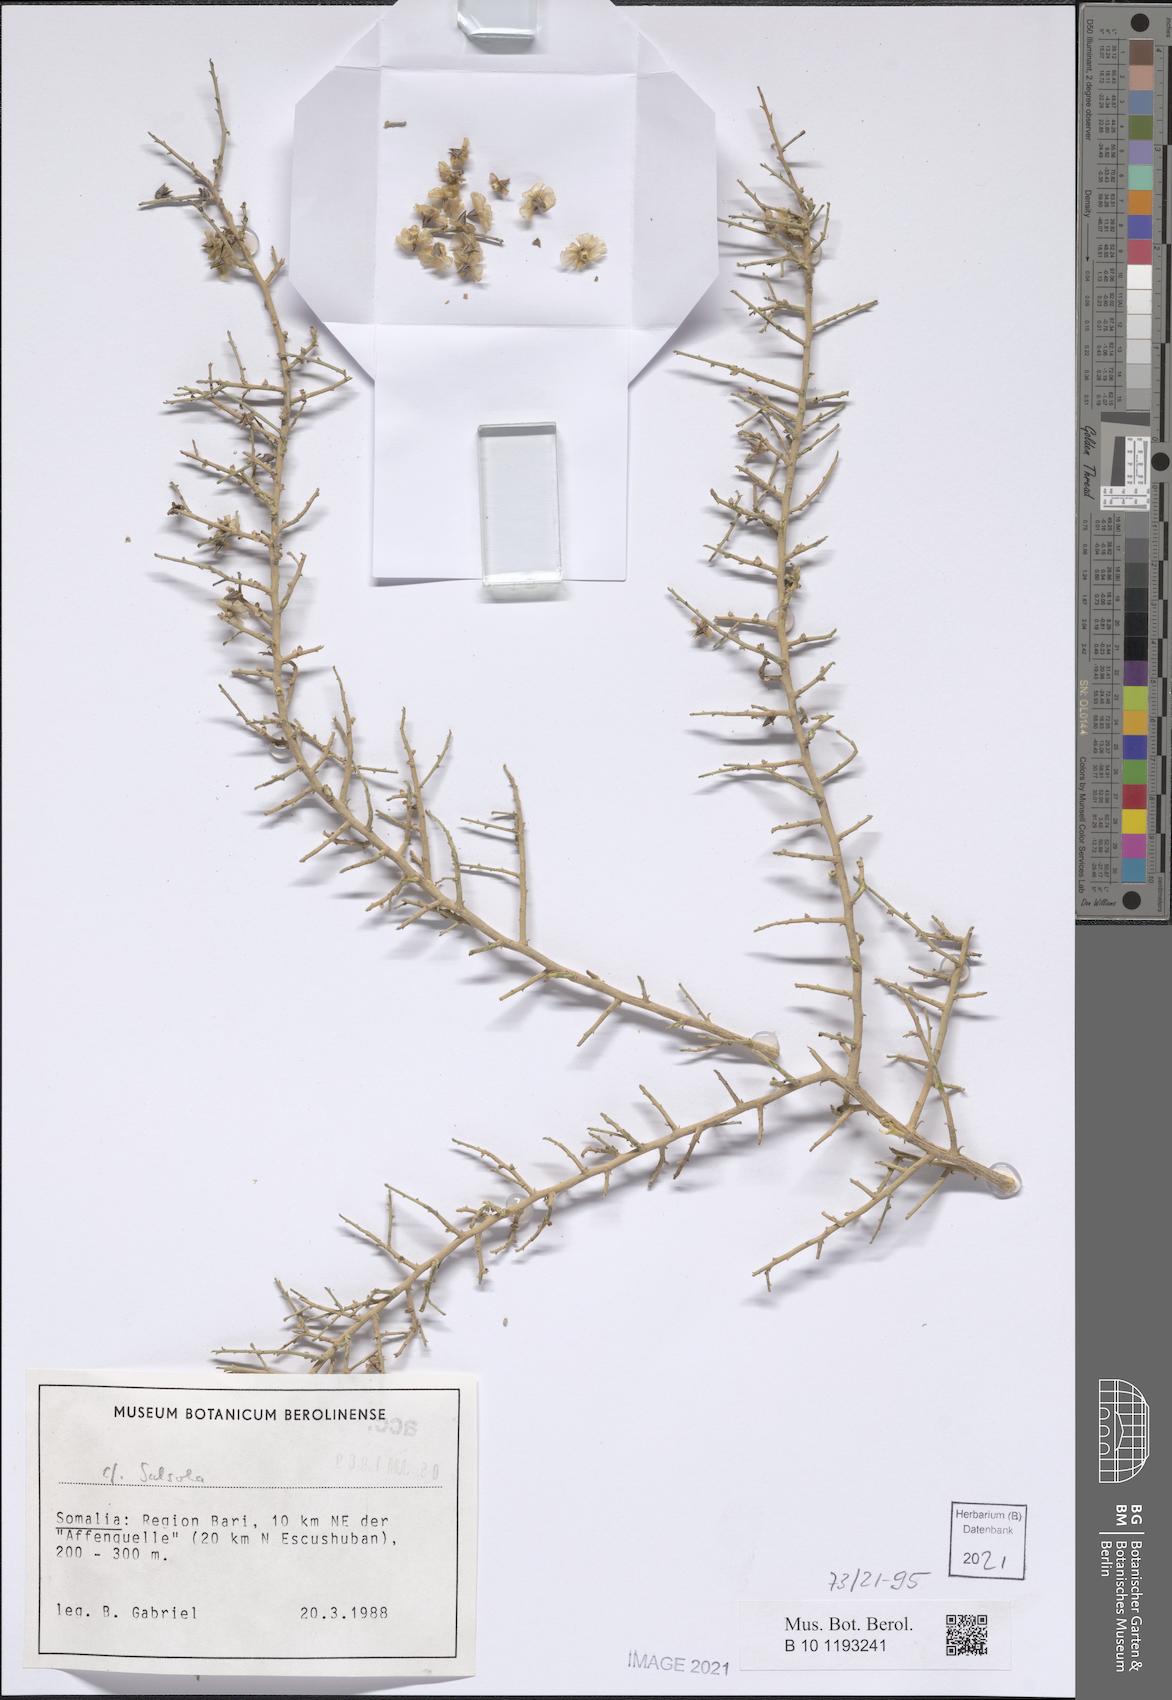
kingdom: Plantae
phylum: Tracheophyta
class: Magnoliopsida
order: Caryophyllales
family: Amaranthaceae
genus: Salsola
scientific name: Salsola
